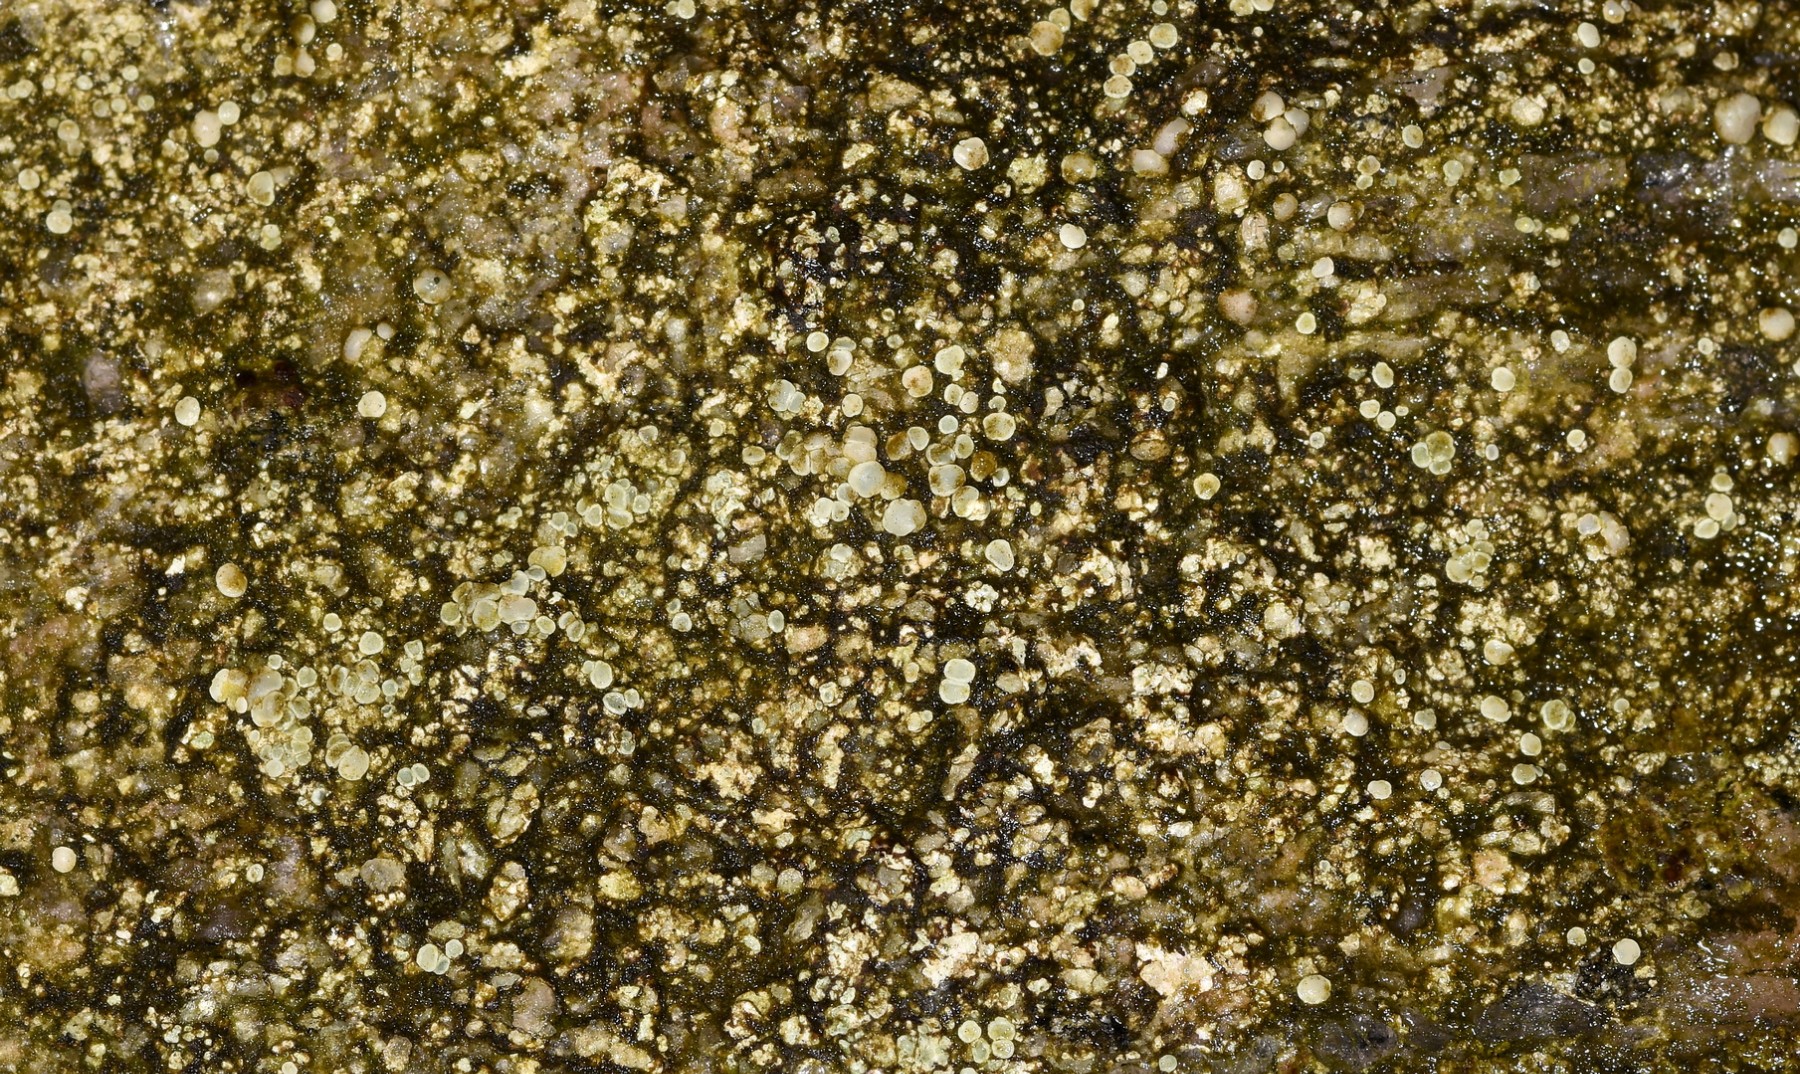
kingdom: Fungi
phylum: Ascomycota
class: Lecanoromycetes
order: Lecanorales
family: Lecanoraceae
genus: Lecanora
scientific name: Lecanora polytropa
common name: bleggrøn kantskivelav
